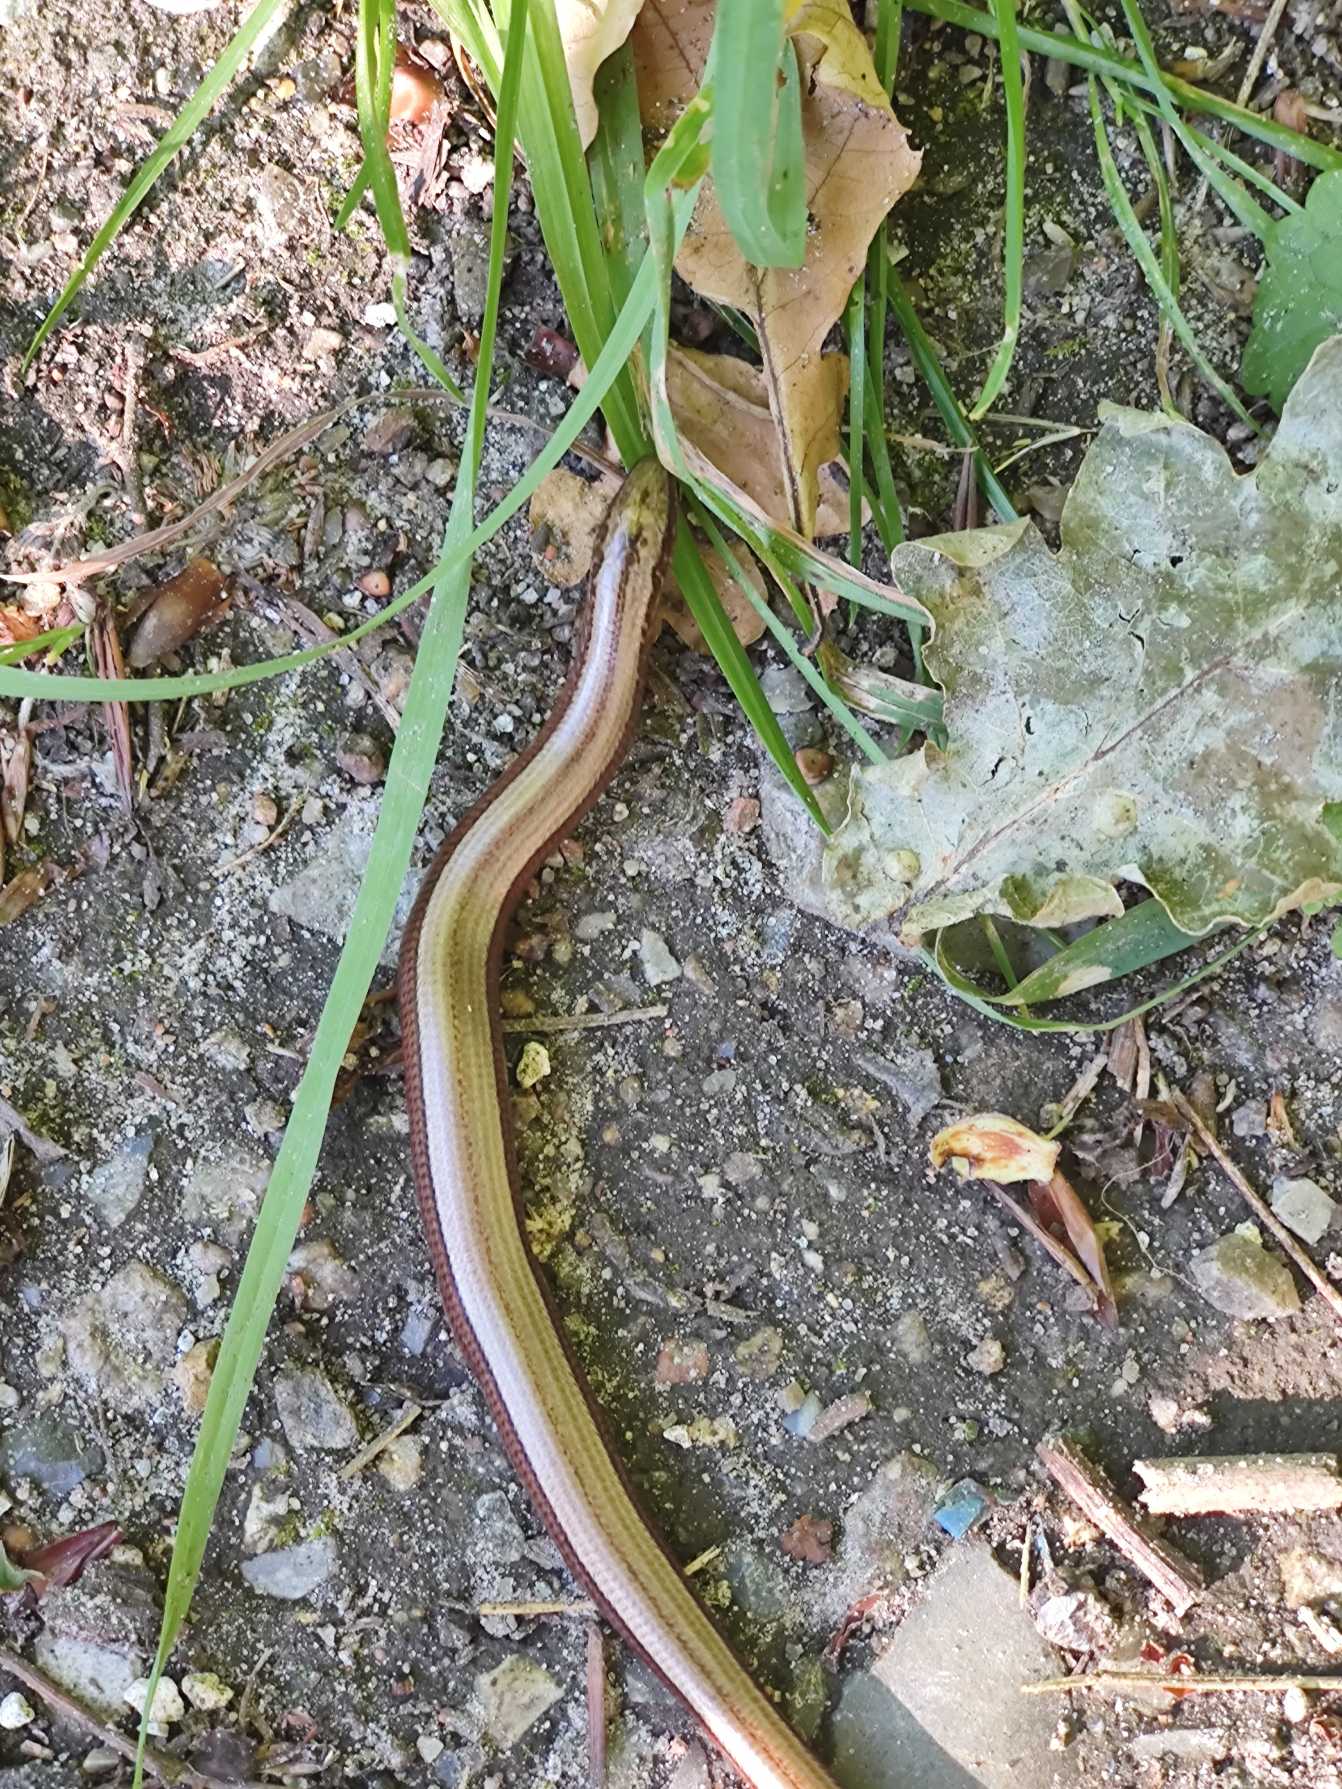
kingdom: Animalia
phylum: Chordata
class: Squamata
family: Anguidae
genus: Anguis
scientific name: Anguis fragilis
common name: Stålorm
